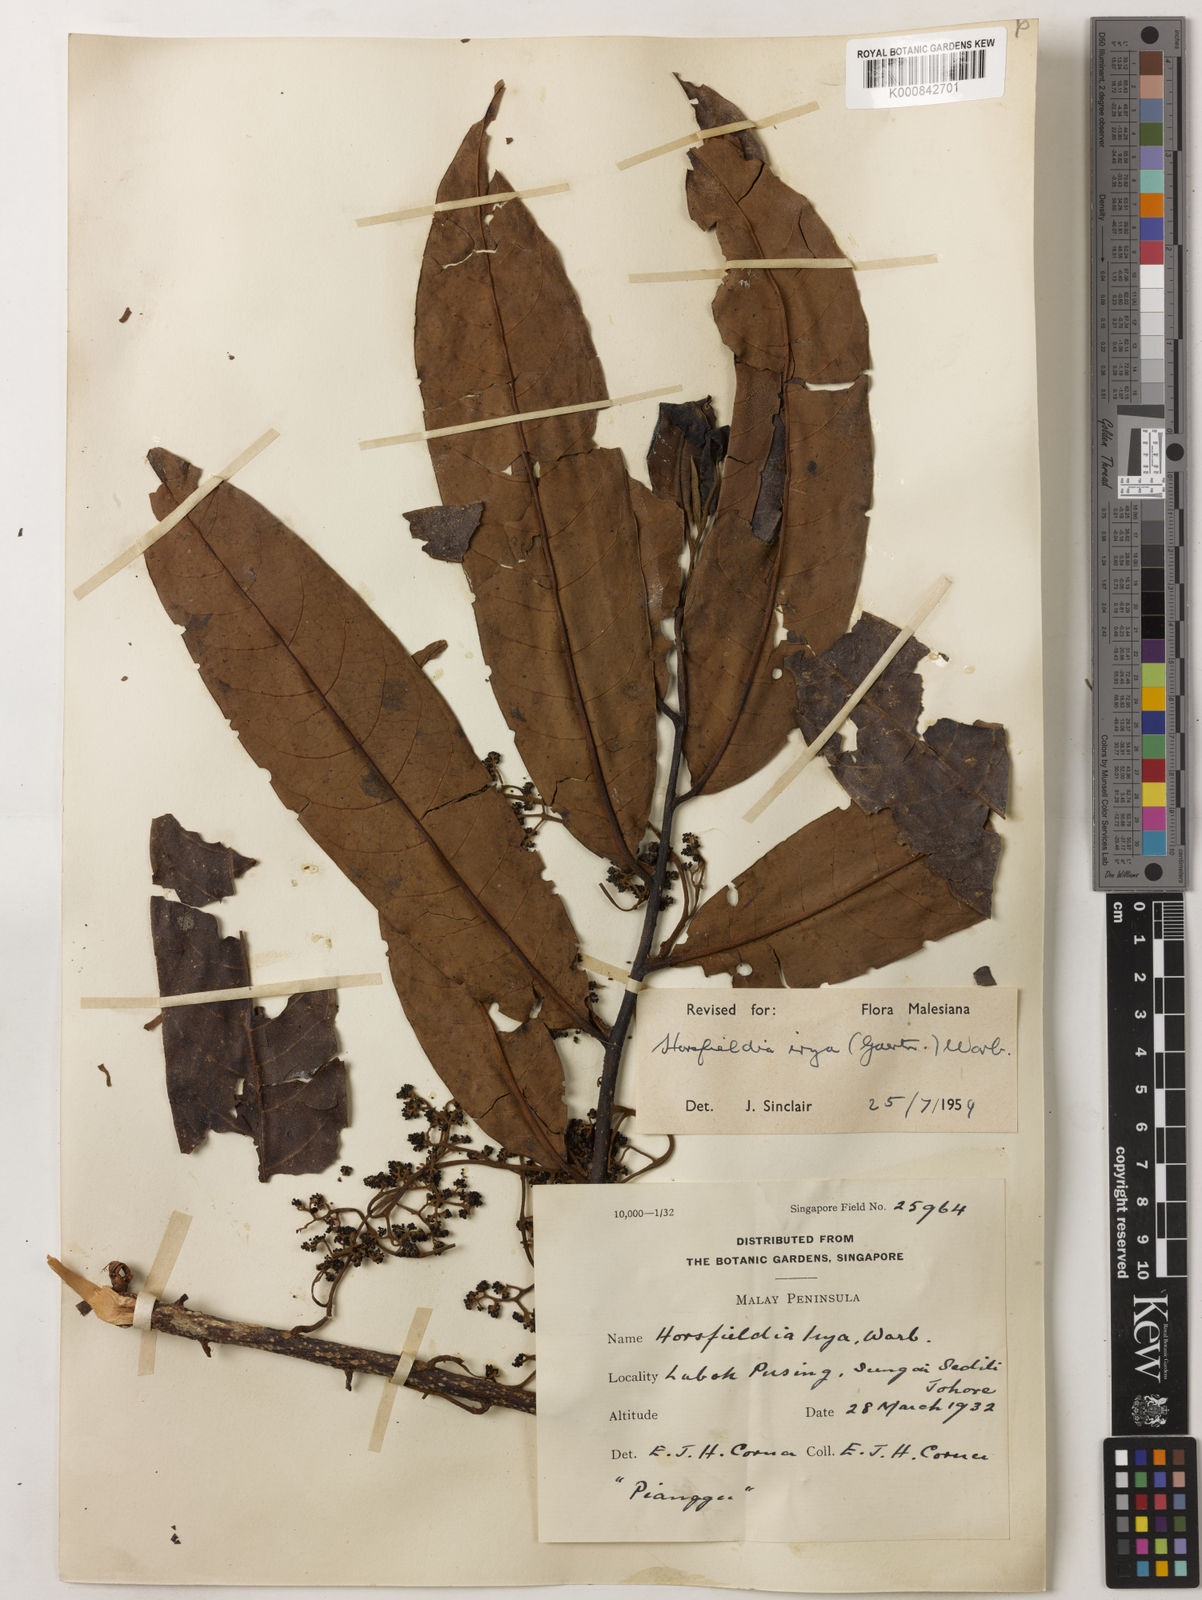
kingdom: Plantae
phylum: Tracheophyta
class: Magnoliopsida
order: Magnoliales
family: Myristicaceae
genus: Horsfieldia
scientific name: Horsfieldia irya
